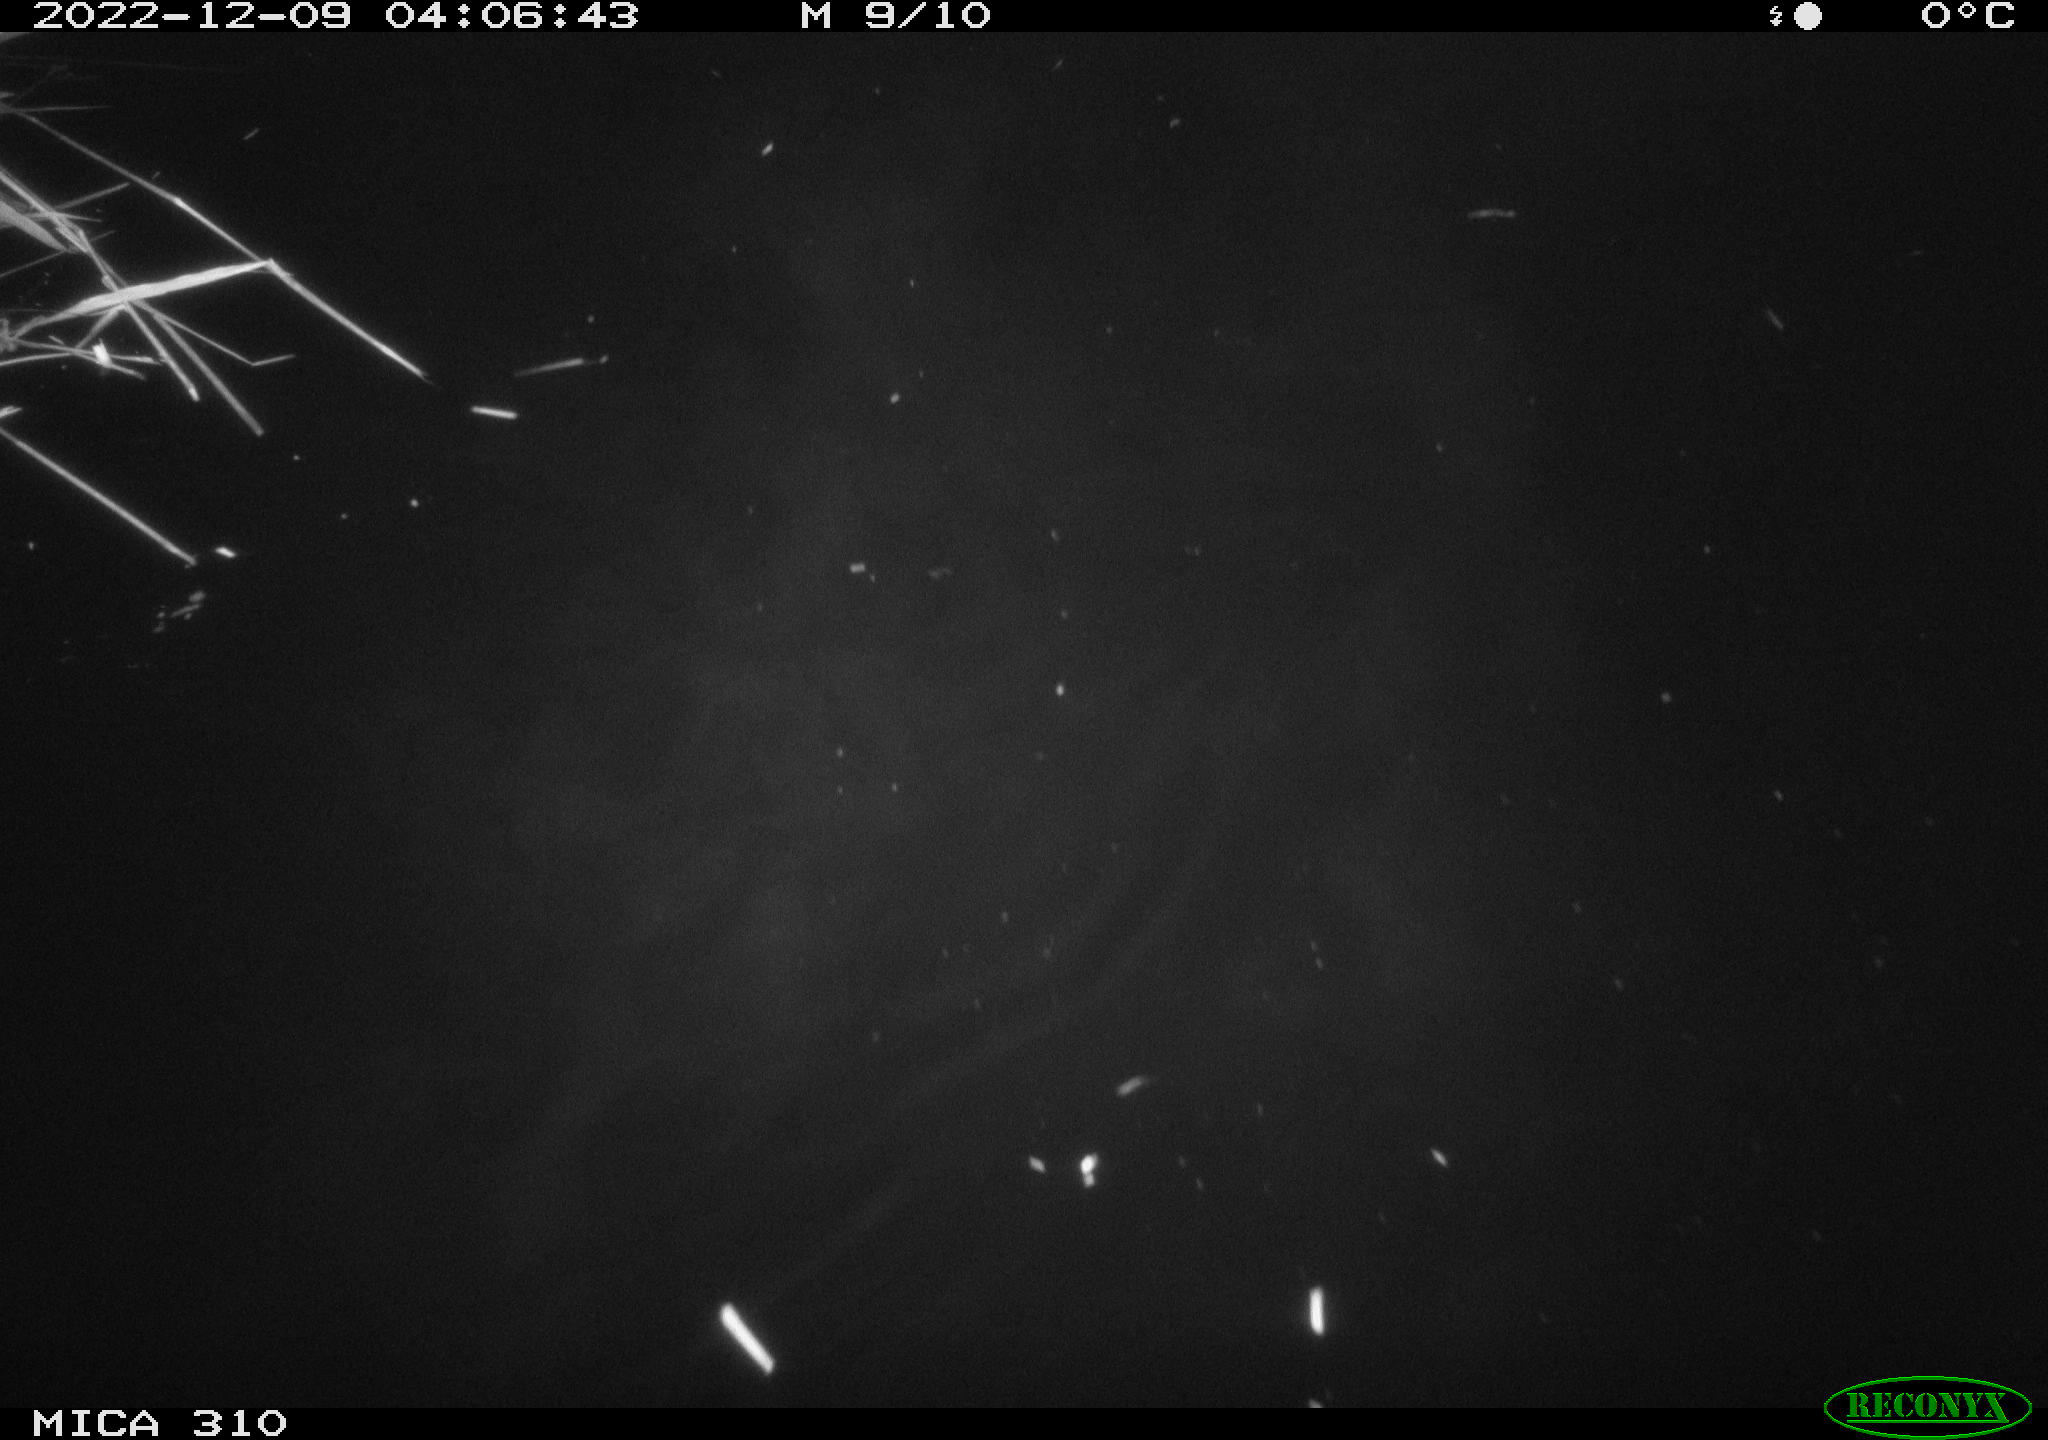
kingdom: Animalia
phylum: Chordata
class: Mammalia
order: Rodentia
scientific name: Rodentia
